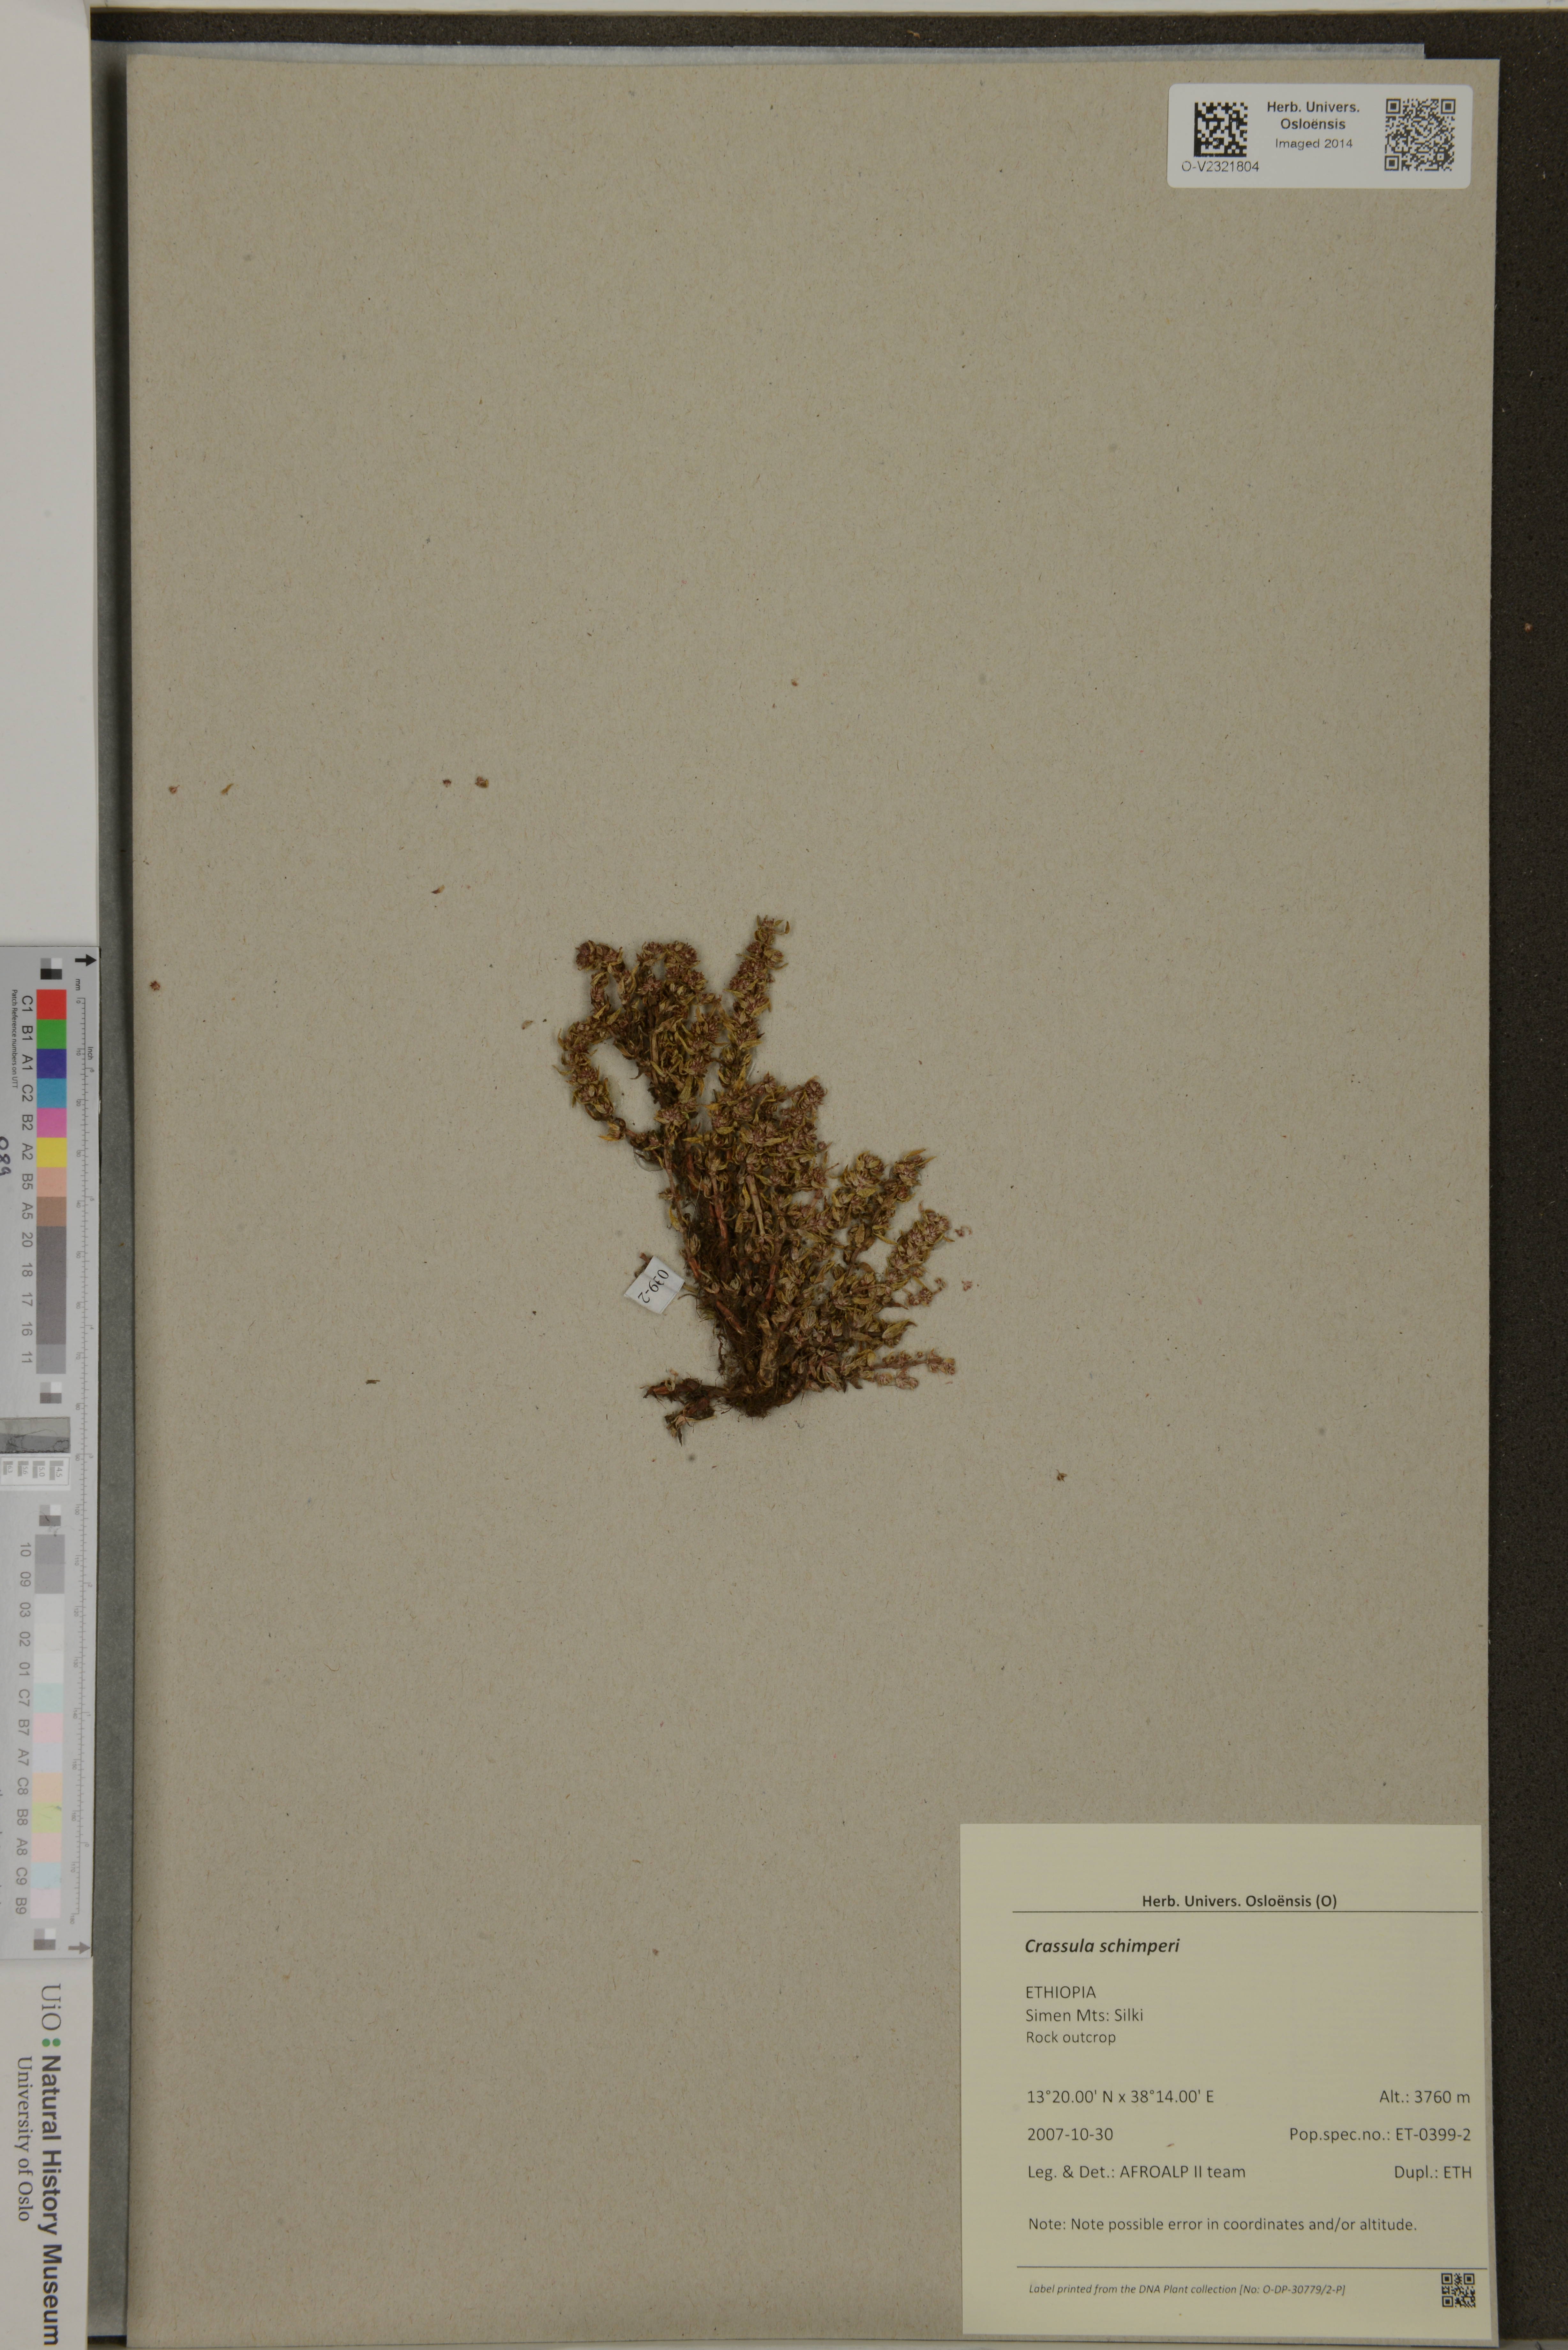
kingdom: Plantae
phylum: Tracheophyta
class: Magnoliopsida
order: Saxifragales
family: Crassulaceae
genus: Crassula
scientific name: Crassula schimperi
